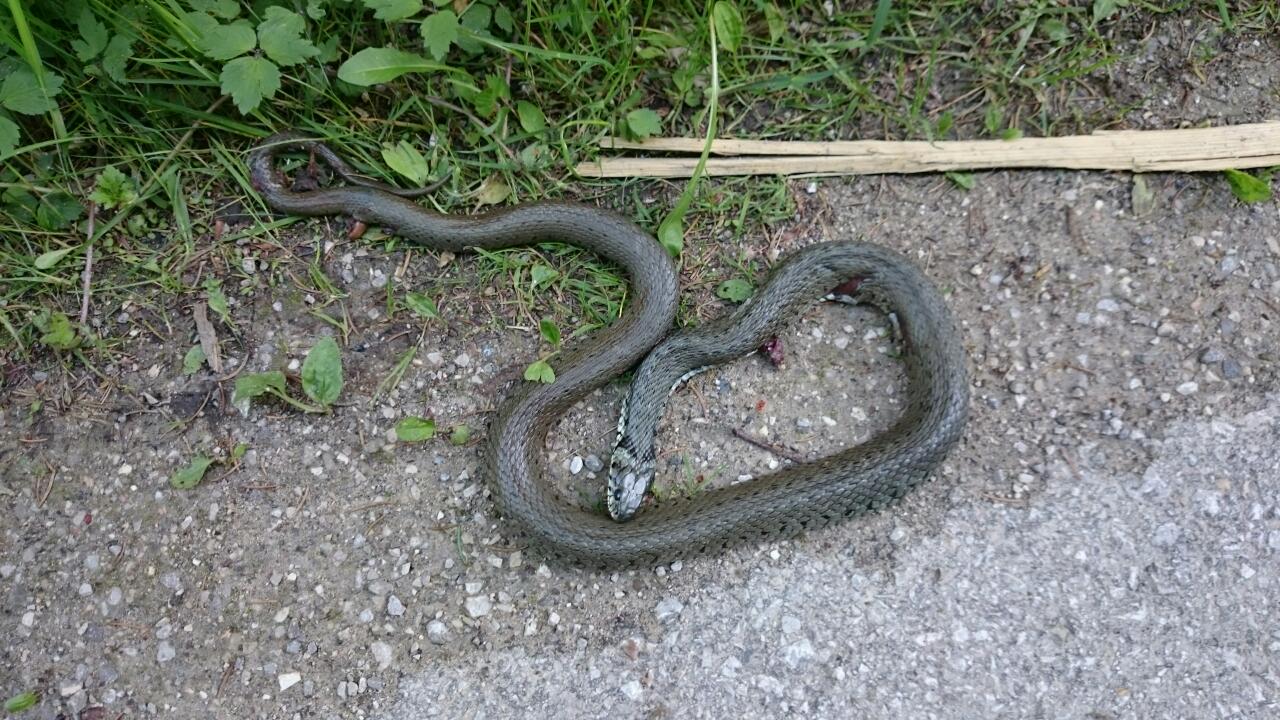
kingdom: Animalia
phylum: Chordata
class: Squamata
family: Colubridae
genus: Natrix
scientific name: Natrix natrix
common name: Grass snake
